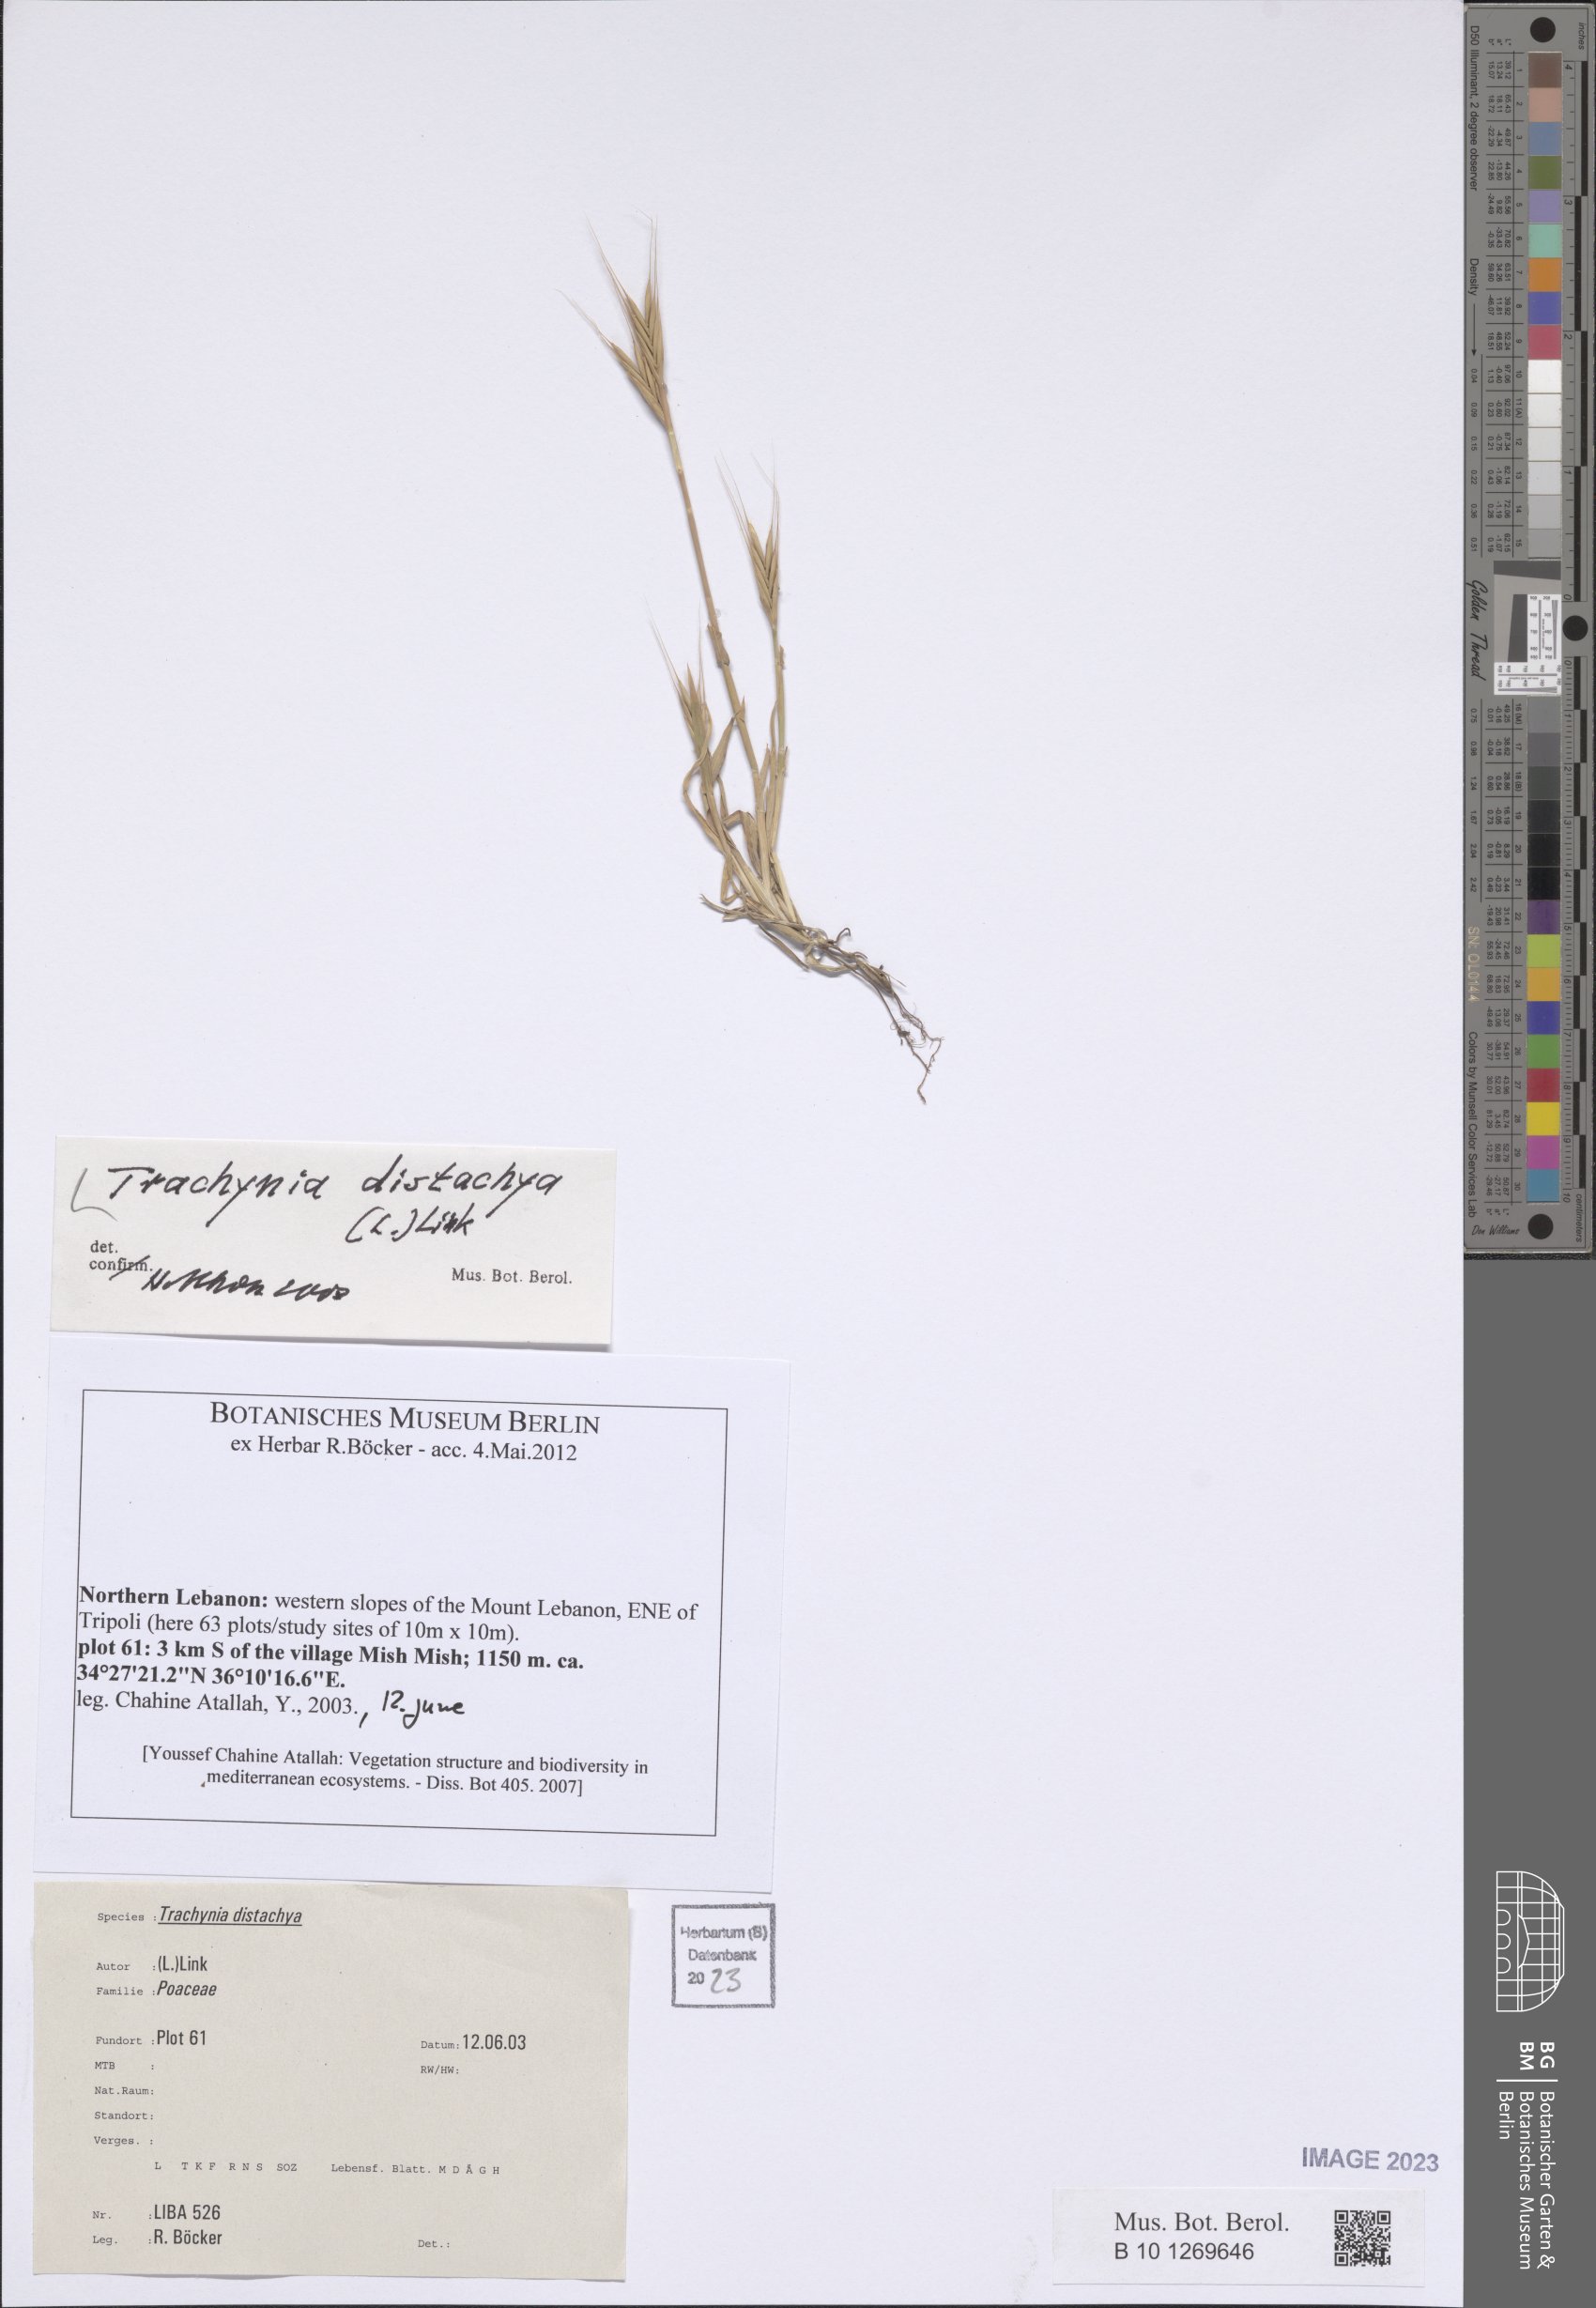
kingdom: Plantae
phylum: Tracheophyta
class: Liliopsida
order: Poales
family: Poaceae
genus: Brachypodium
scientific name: Brachypodium distachyon
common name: Stiff brome
